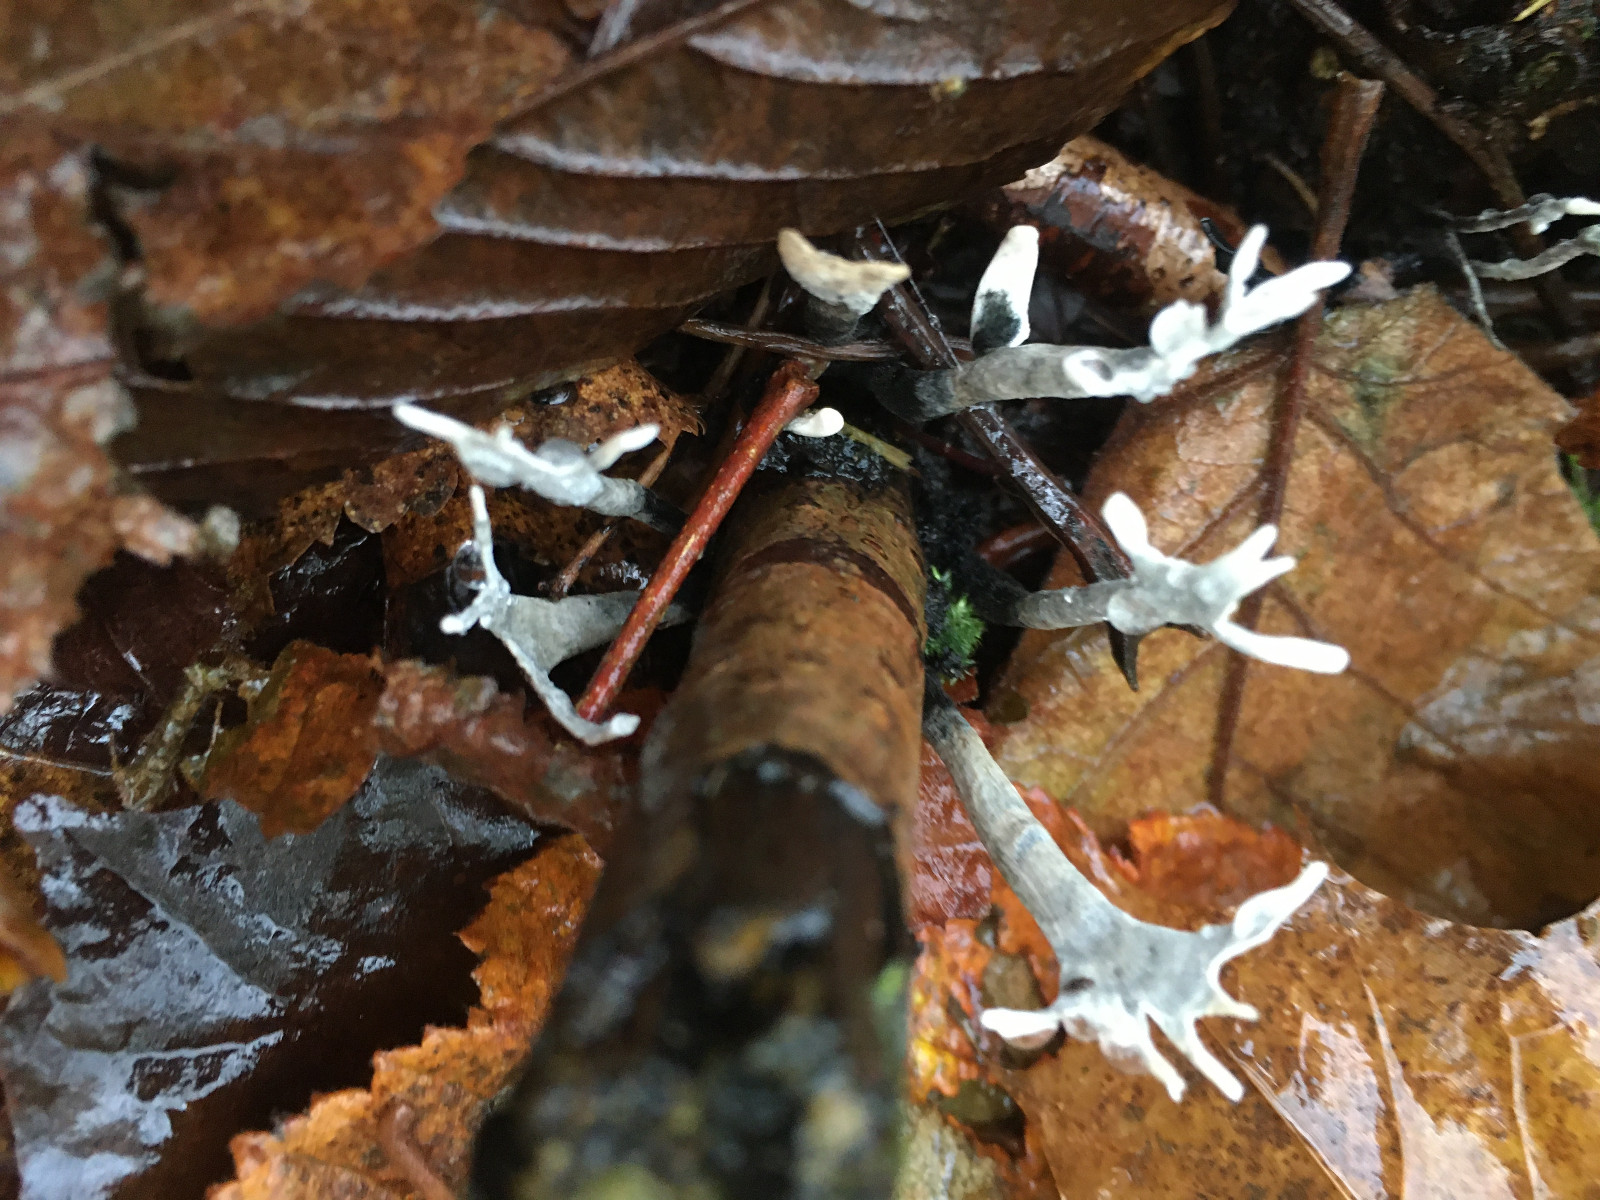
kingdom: Fungi
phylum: Ascomycota
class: Sordariomycetes
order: Xylariales
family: Xylariaceae
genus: Xylaria
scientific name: Xylaria hypoxylon
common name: grenet stødsvamp
